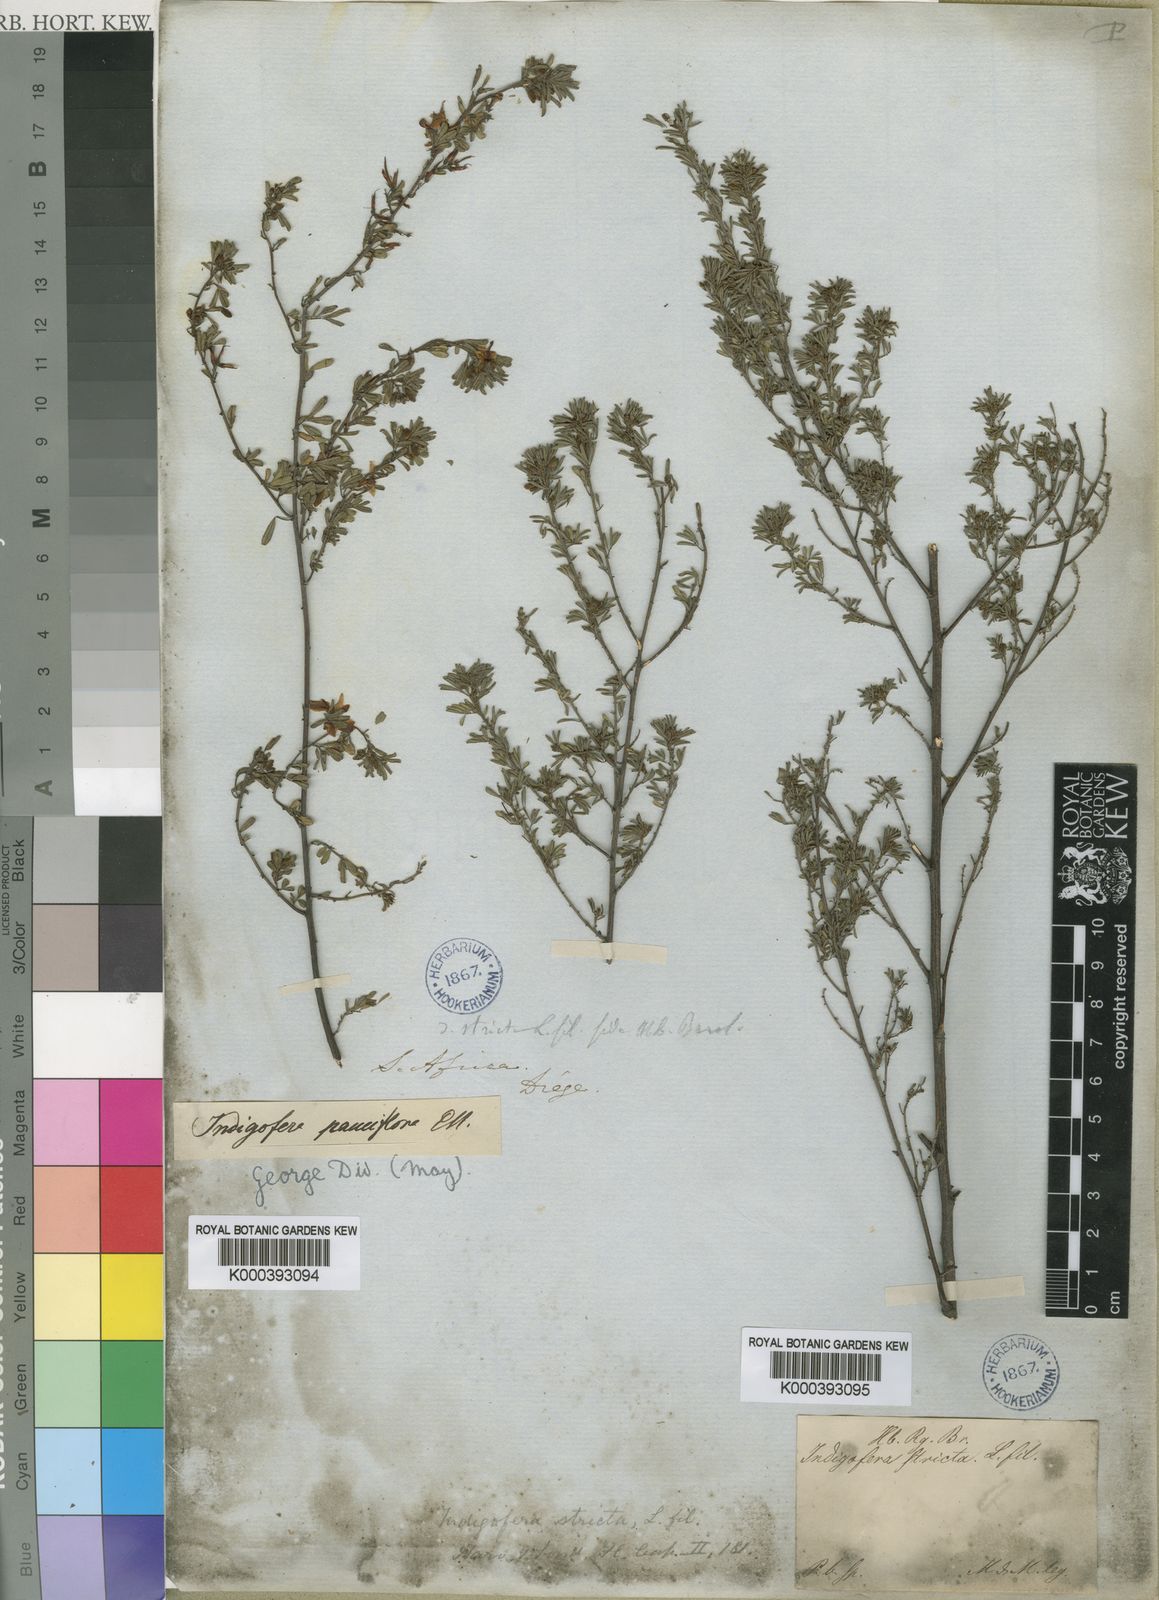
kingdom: Plantae
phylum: Tracheophyta
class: Magnoliopsida
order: Fabales
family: Fabaceae
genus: Indigofera
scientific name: Indigofera stricta
